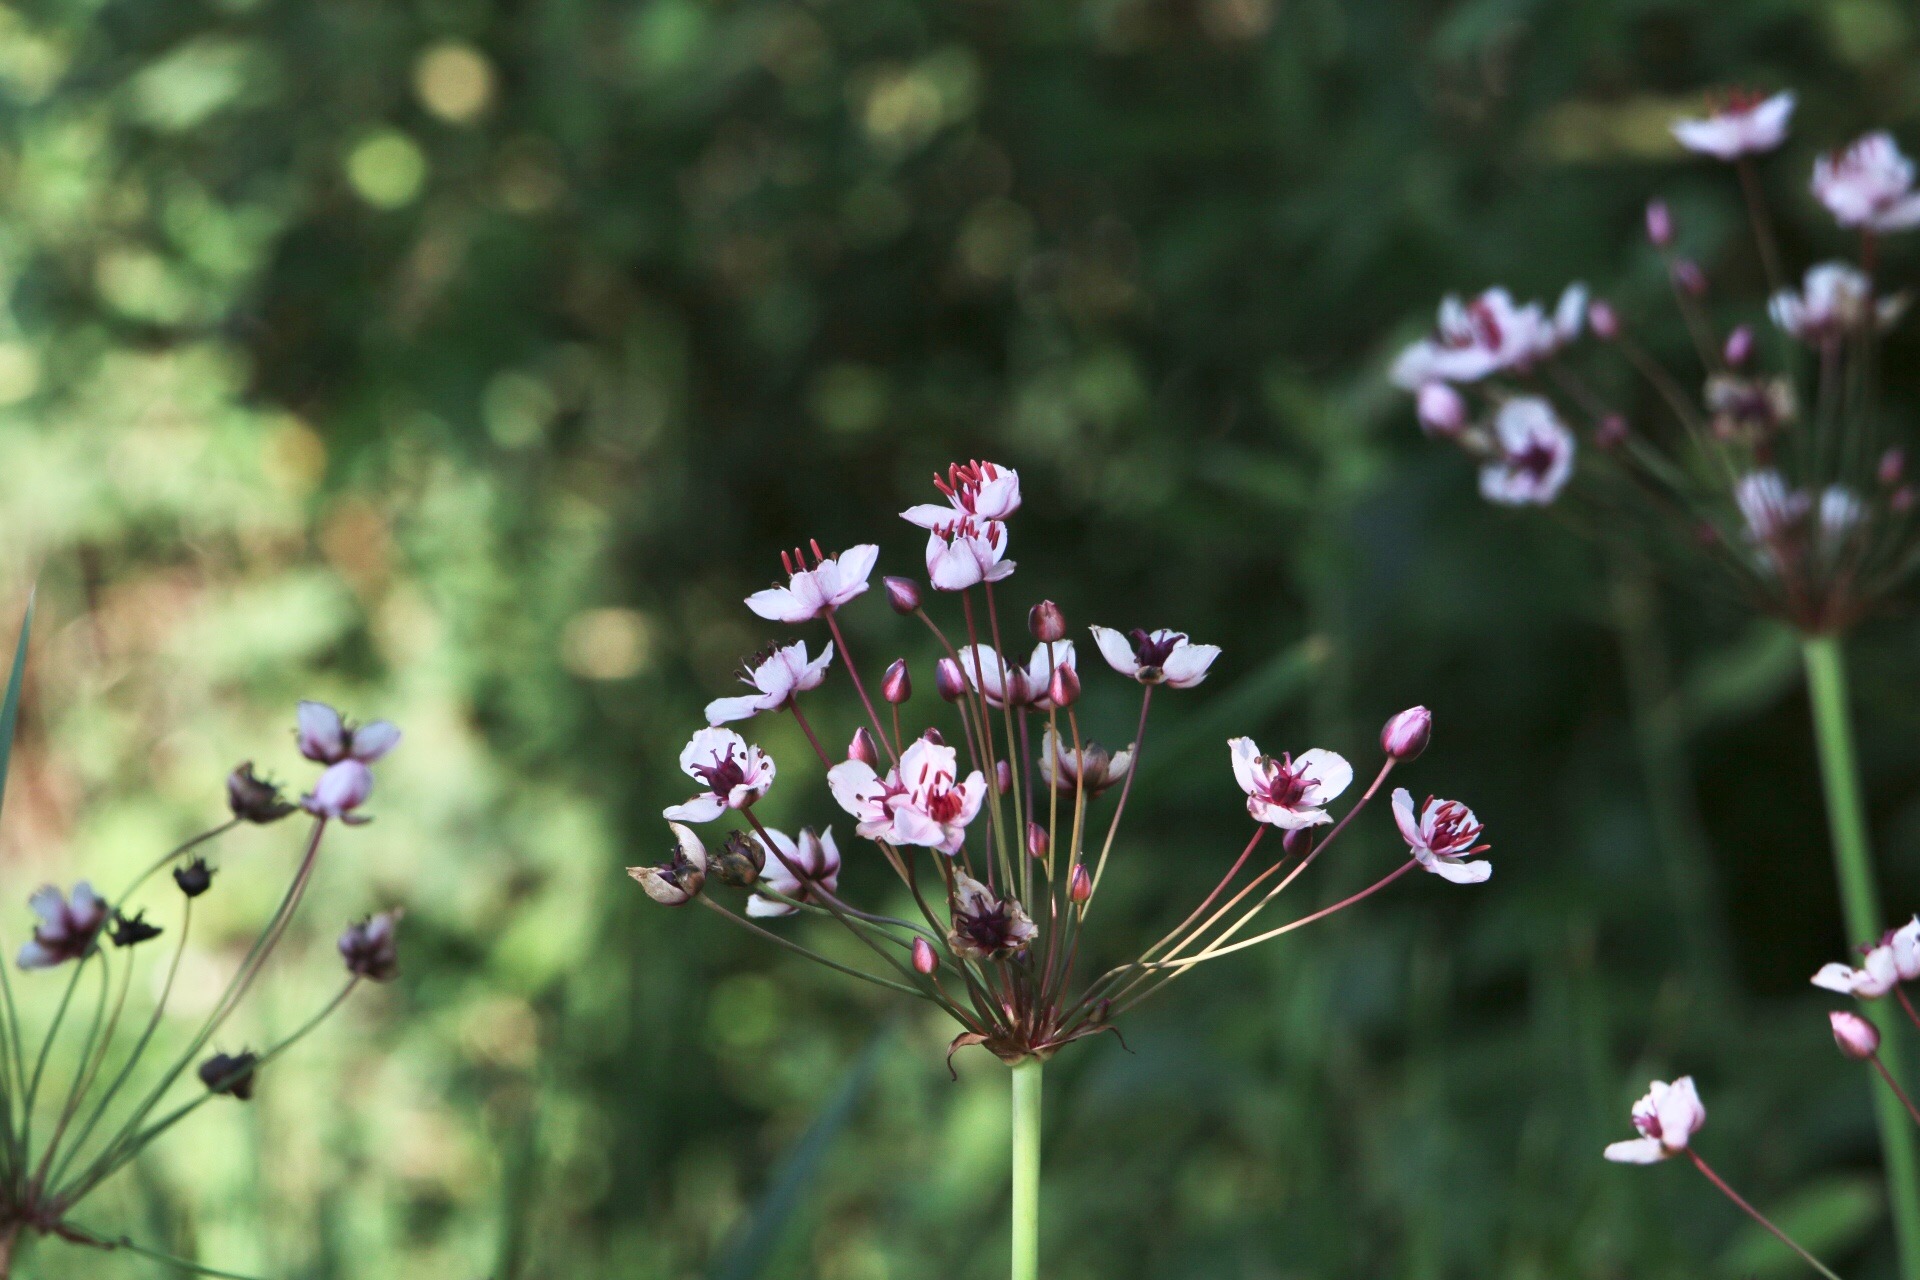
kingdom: Plantae
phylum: Tracheophyta
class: Liliopsida
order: Alismatales
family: Butomaceae
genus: Butomus
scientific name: Butomus umbellatus
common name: Brudelys
